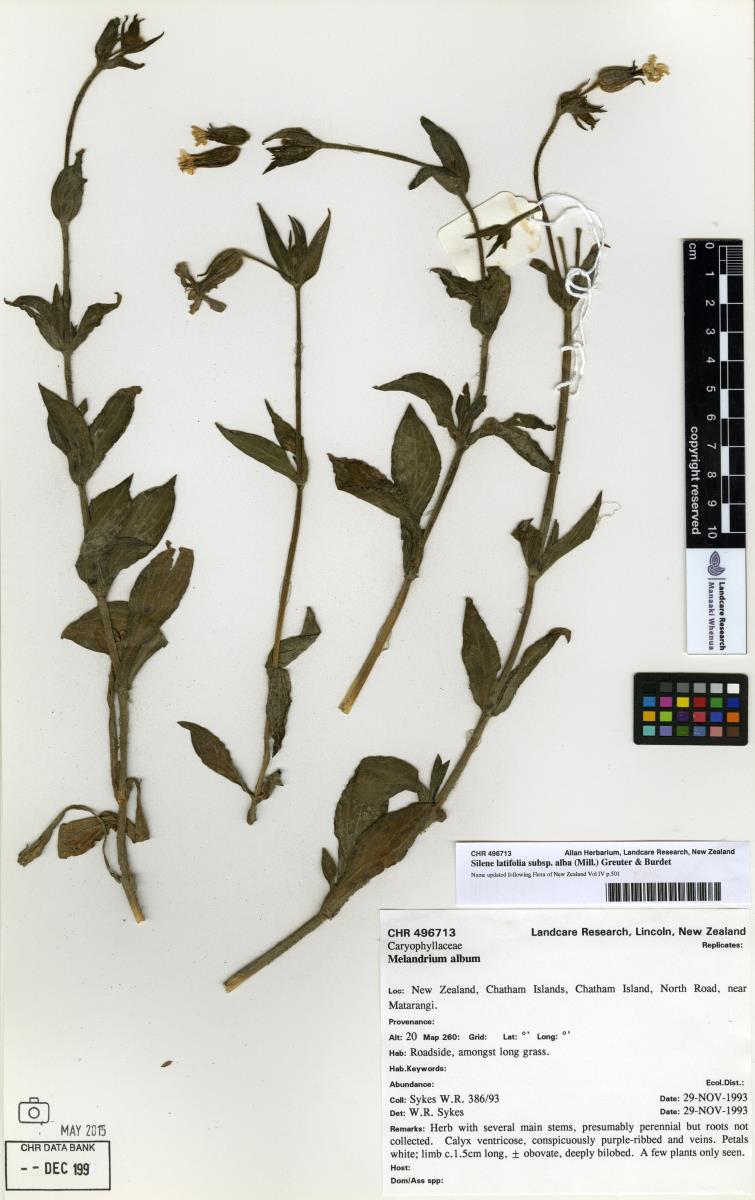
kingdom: Plantae
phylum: Tracheophyta
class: Magnoliopsida
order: Caryophyllales
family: Caryophyllaceae
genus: Silene
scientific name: Silene latifolia
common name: White campion
